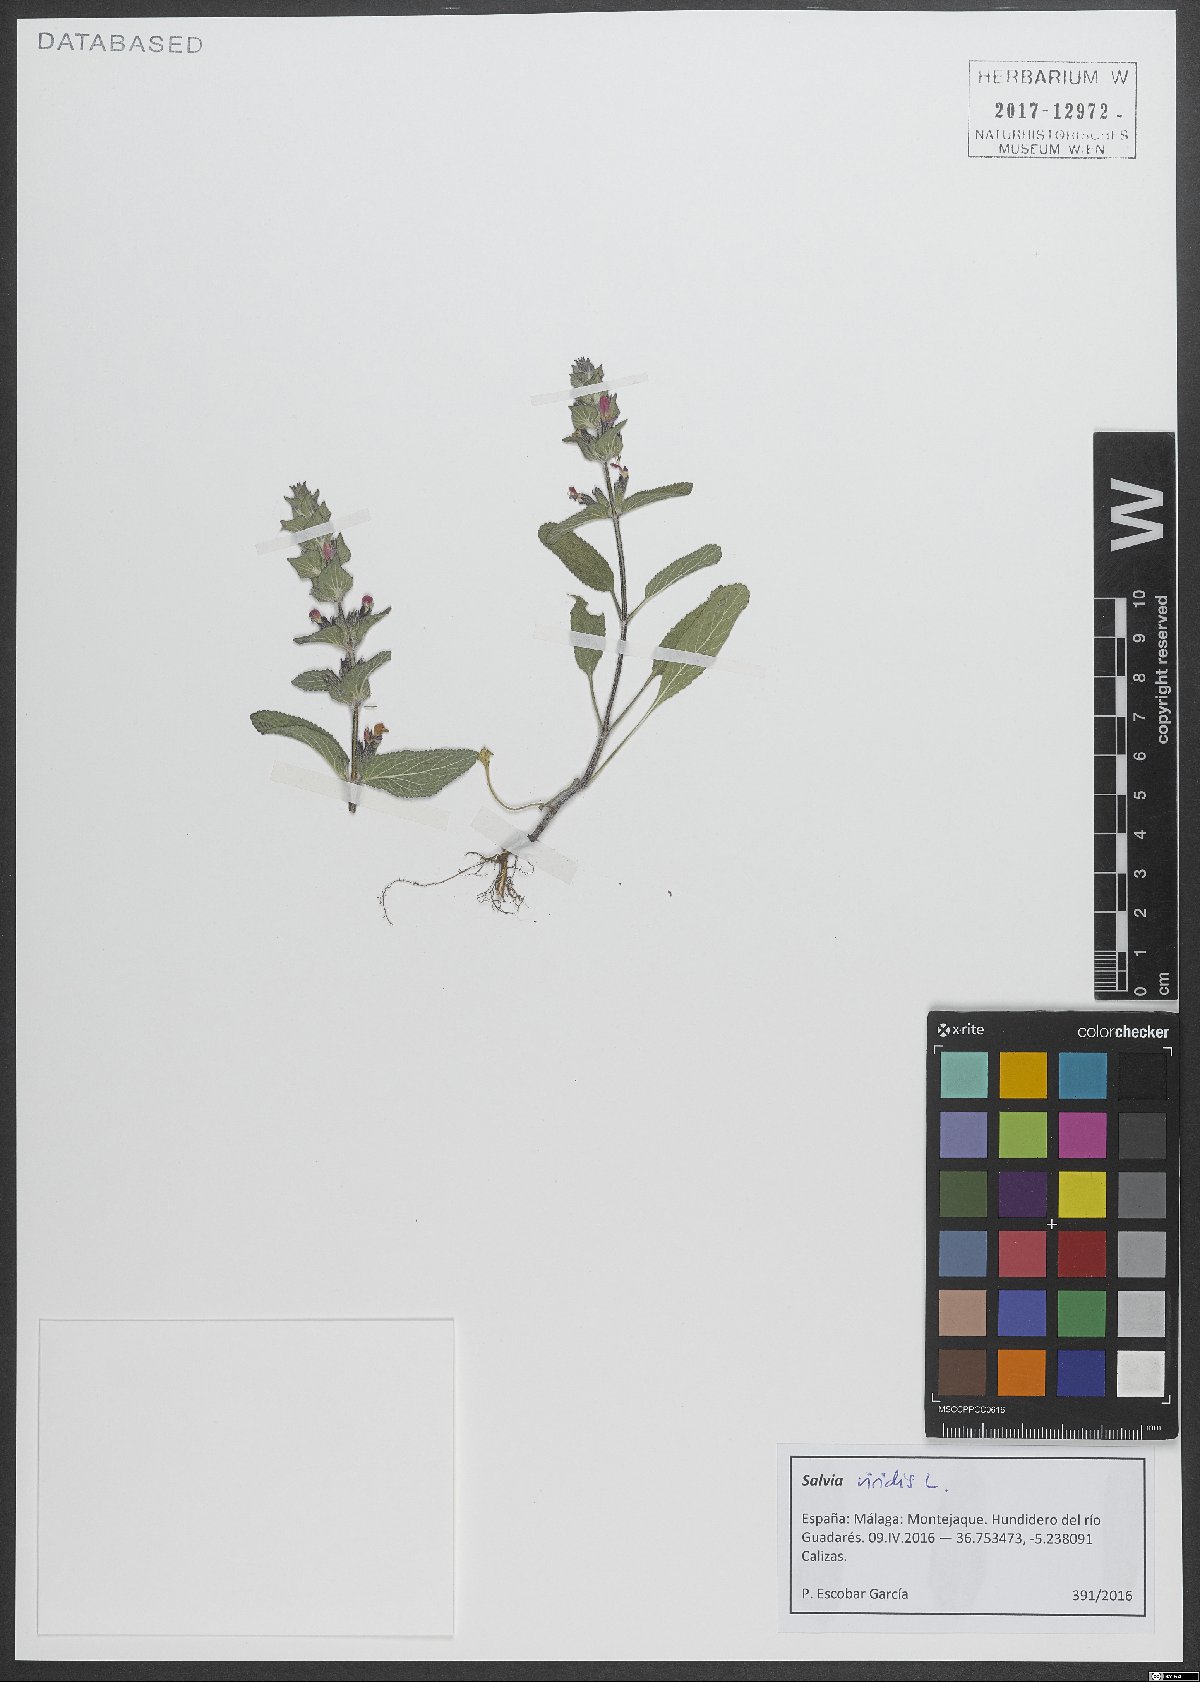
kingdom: Plantae
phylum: Tracheophyta
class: Magnoliopsida
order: Lamiales
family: Lamiaceae
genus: Salvia
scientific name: Salvia viridis
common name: Annual clary
